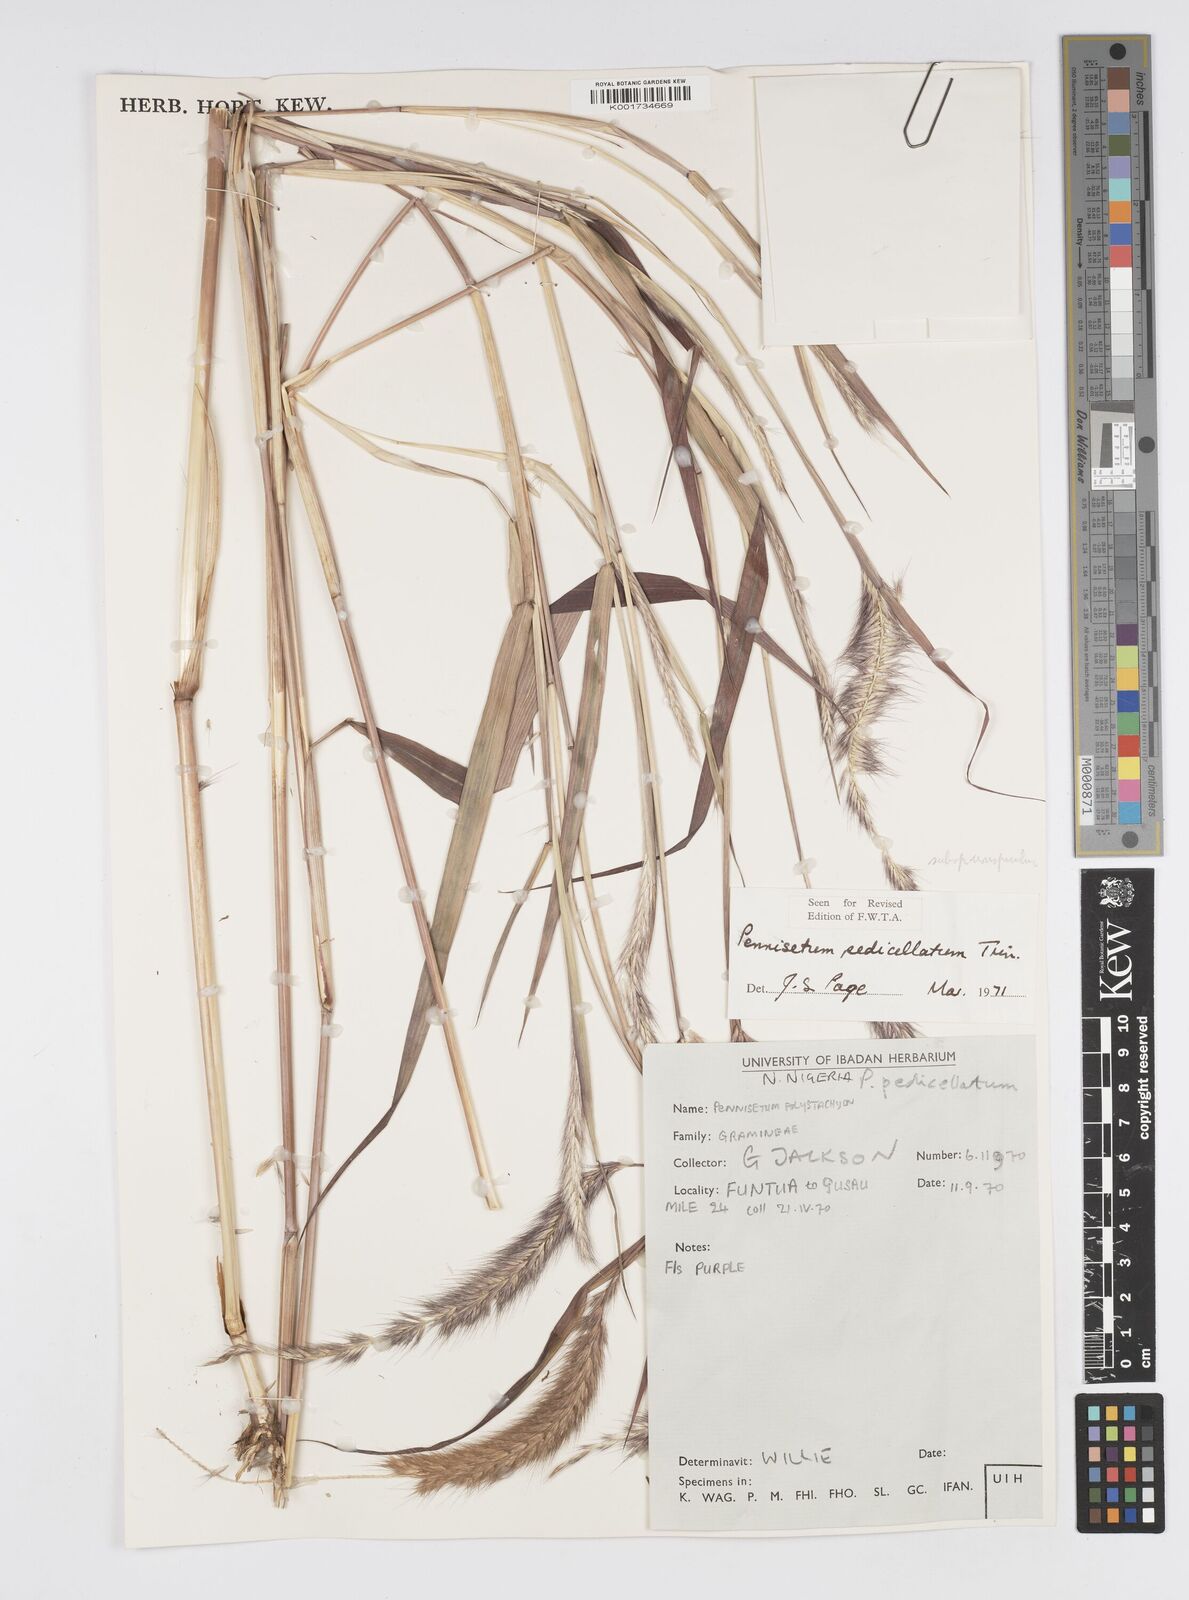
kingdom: Plantae
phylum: Tracheophyta
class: Liliopsida
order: Poales
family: Poaceae
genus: Cenchrus
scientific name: Cenchrus pedicellatus
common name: Hairy fountain grass
